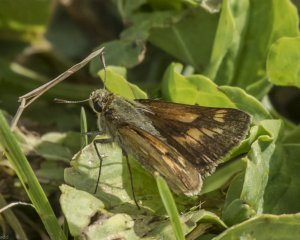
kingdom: Animalia
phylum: Arthropoda
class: Insecta
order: Lepidoptera
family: Hesperiidae
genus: Polites
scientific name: Polites
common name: Long Dash Skipper
